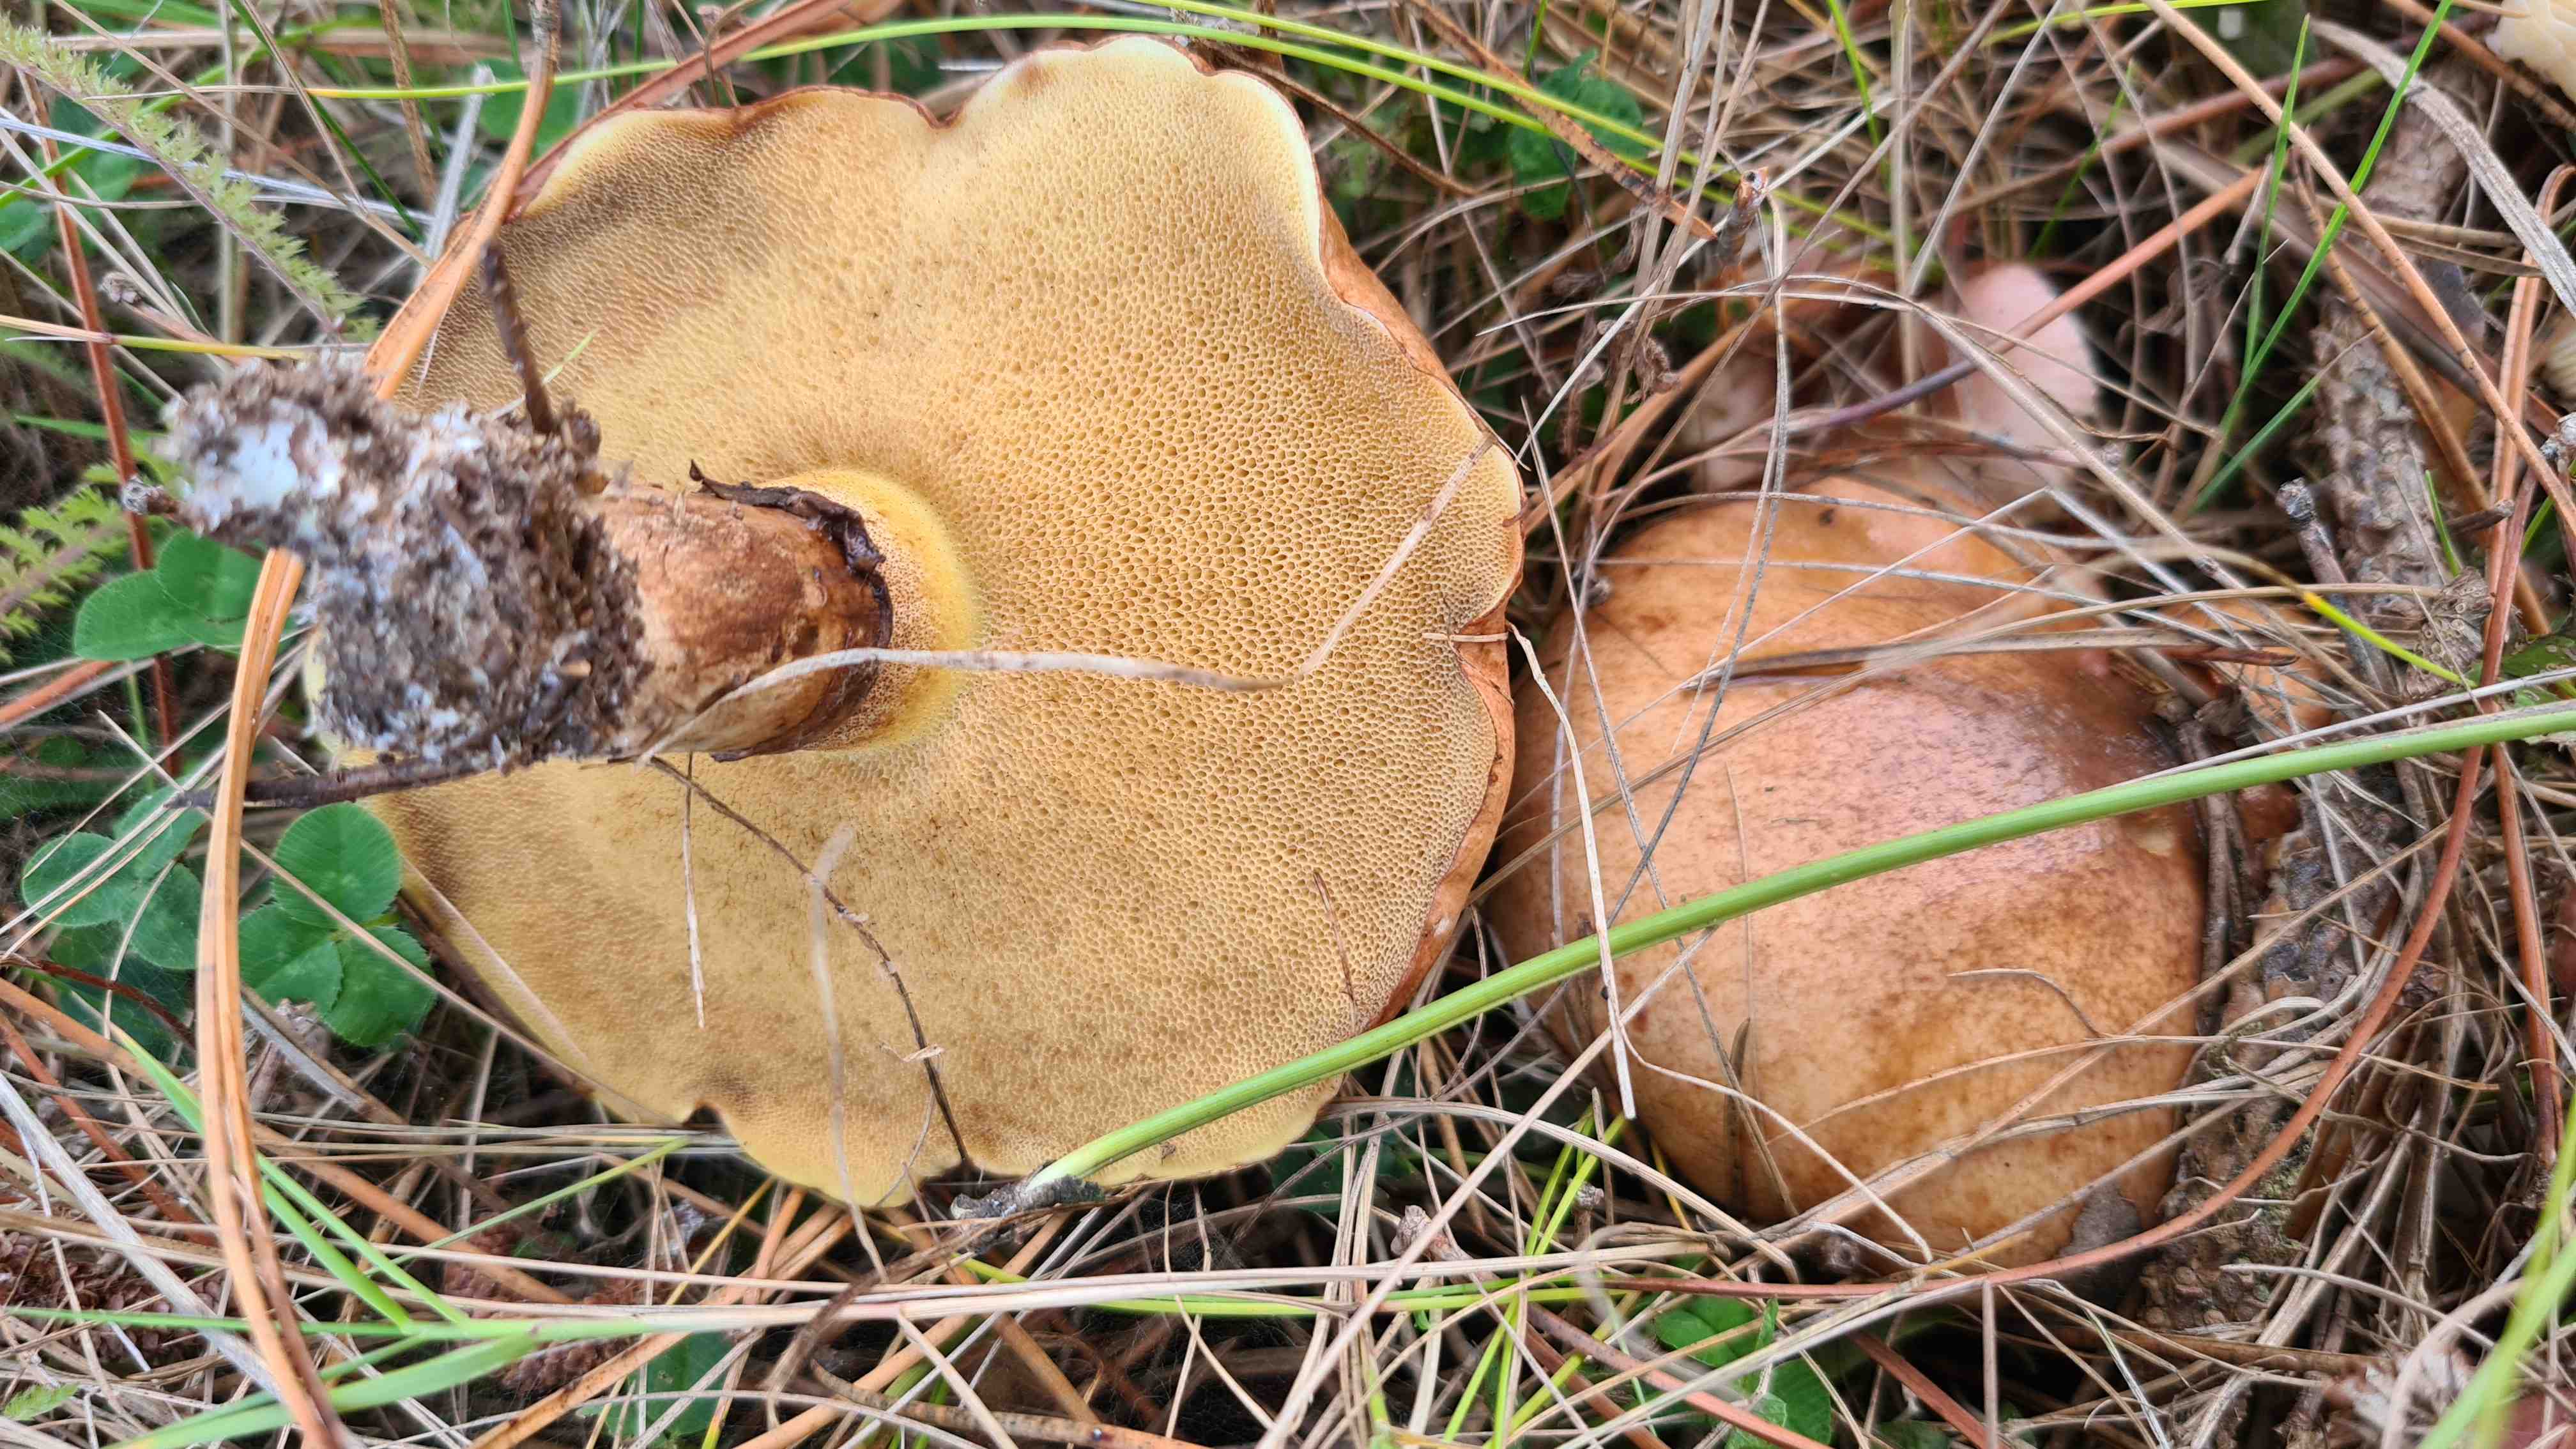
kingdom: Fungi
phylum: Basidiomycota
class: Agaricomycetes
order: Boletales
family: Suillaceae
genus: Suillus
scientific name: Suillus luteus
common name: brungul slimrørhat
